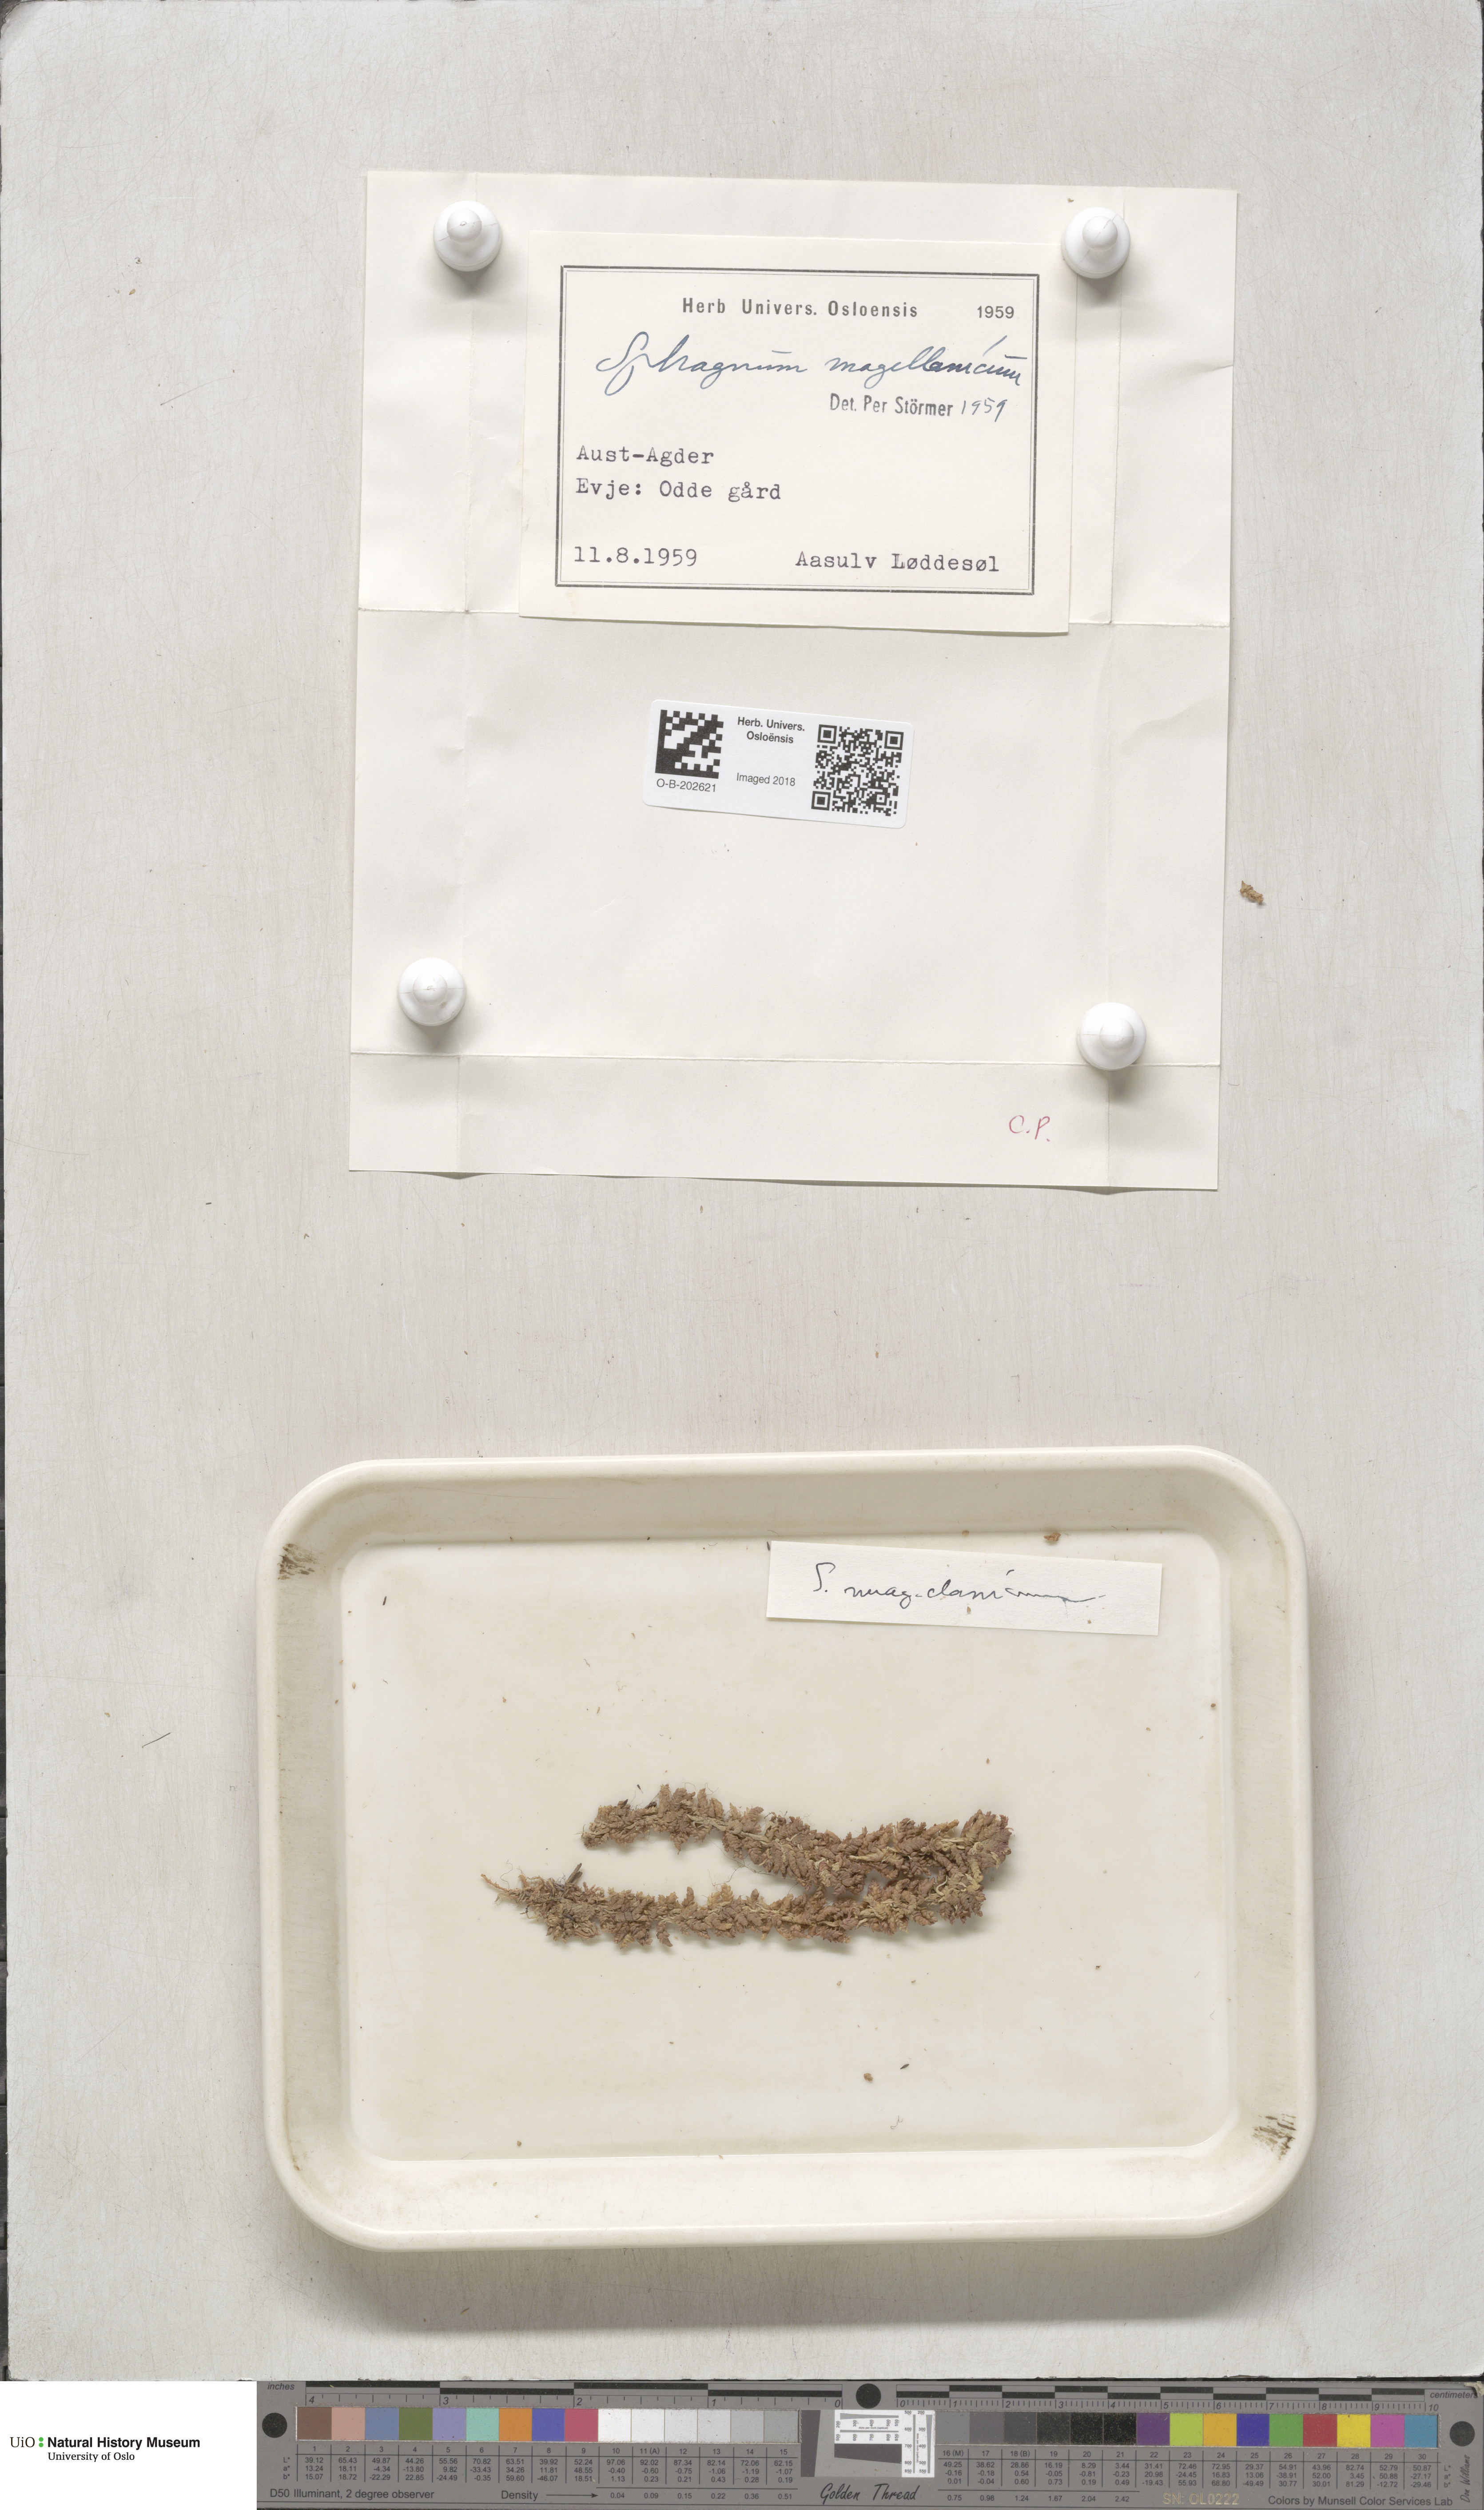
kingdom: Plantae
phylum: Bryophyta
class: Sphagnopsida
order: Sphagnales
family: Sphagnaceae
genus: Sphagnum
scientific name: Sphagnum magellanicum
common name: Magellan's peat moss
